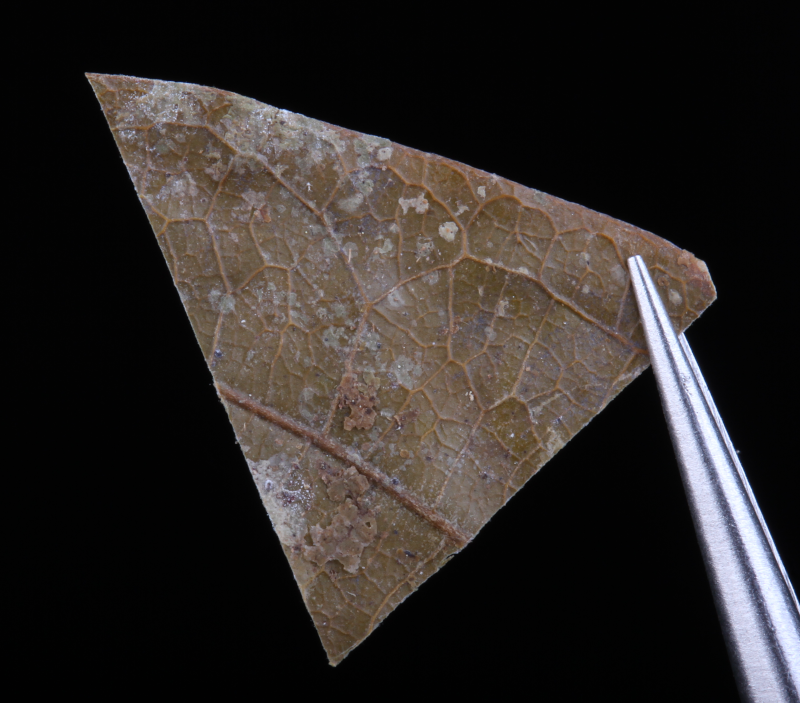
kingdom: Plantae
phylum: Marchantiophyta
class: Jungermanniopsida
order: Porellales
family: Lejeuneaceae
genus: Allorgella
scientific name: Allorgella semperiana
